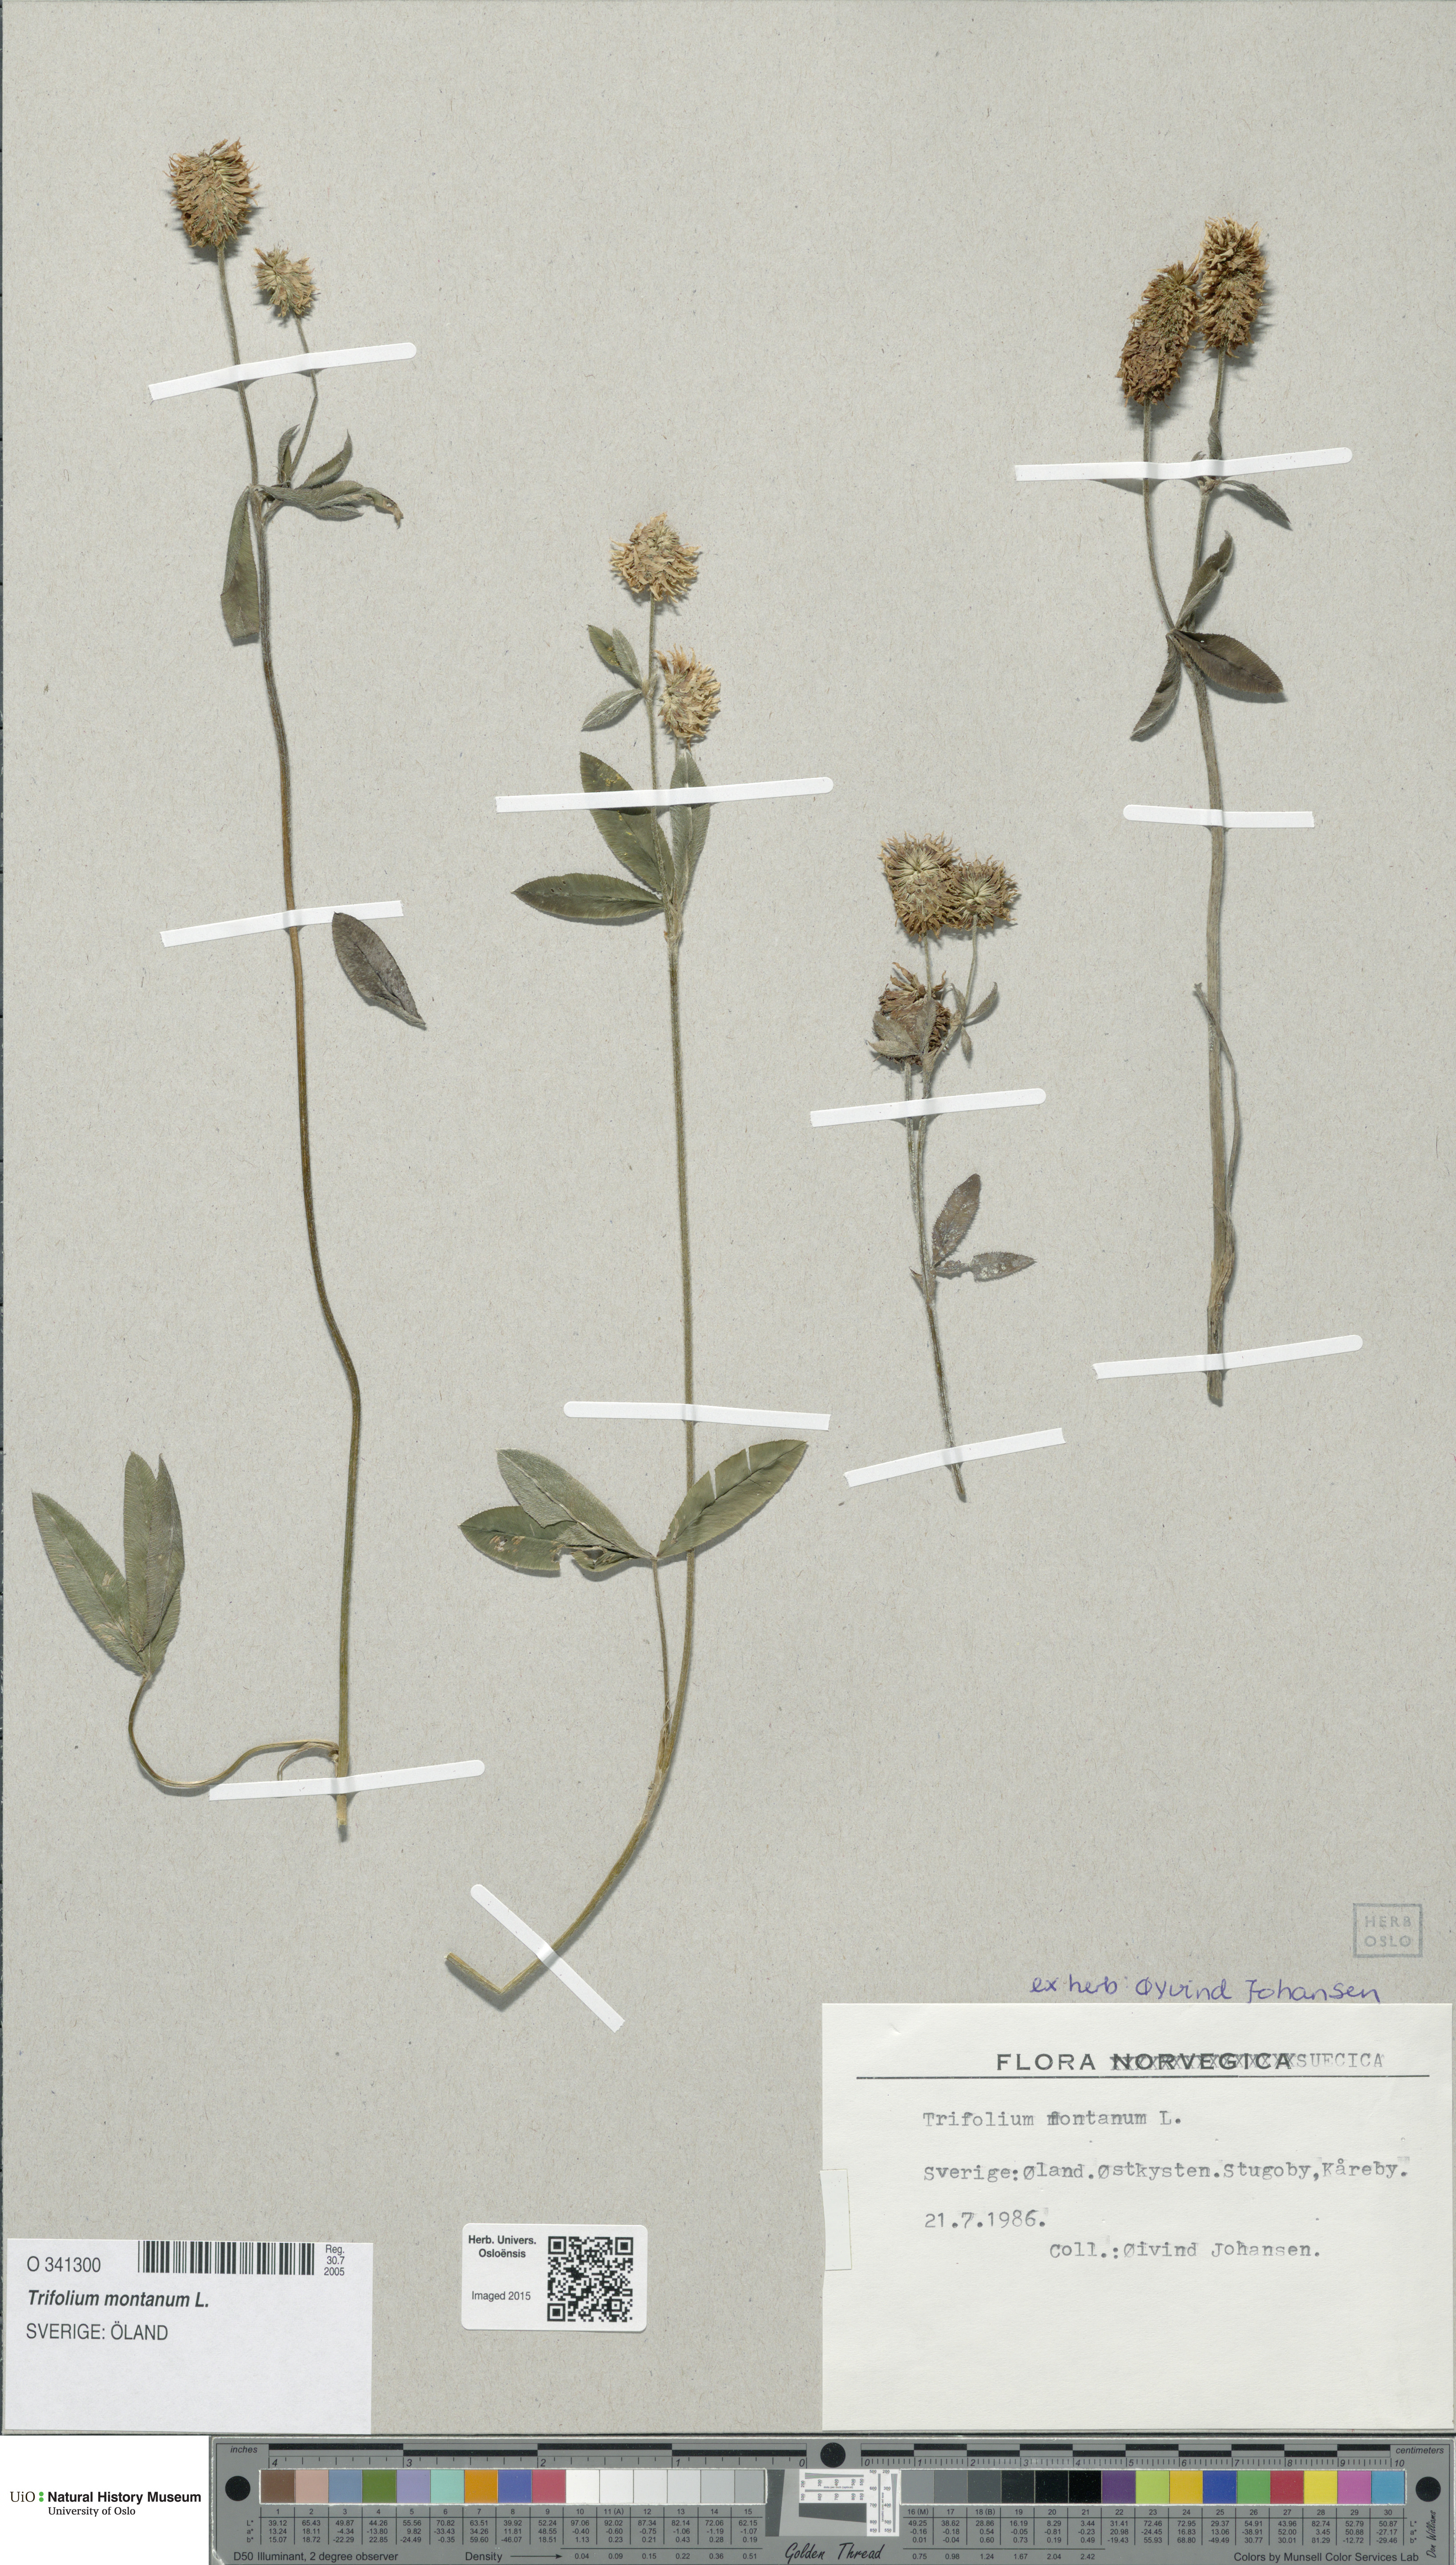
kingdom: Plantae
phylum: Tracheophyta
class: Magnoliopsida
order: Fabales
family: Fabaceae
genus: Trifolium
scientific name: Trifolium montanum
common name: Mountain clover
